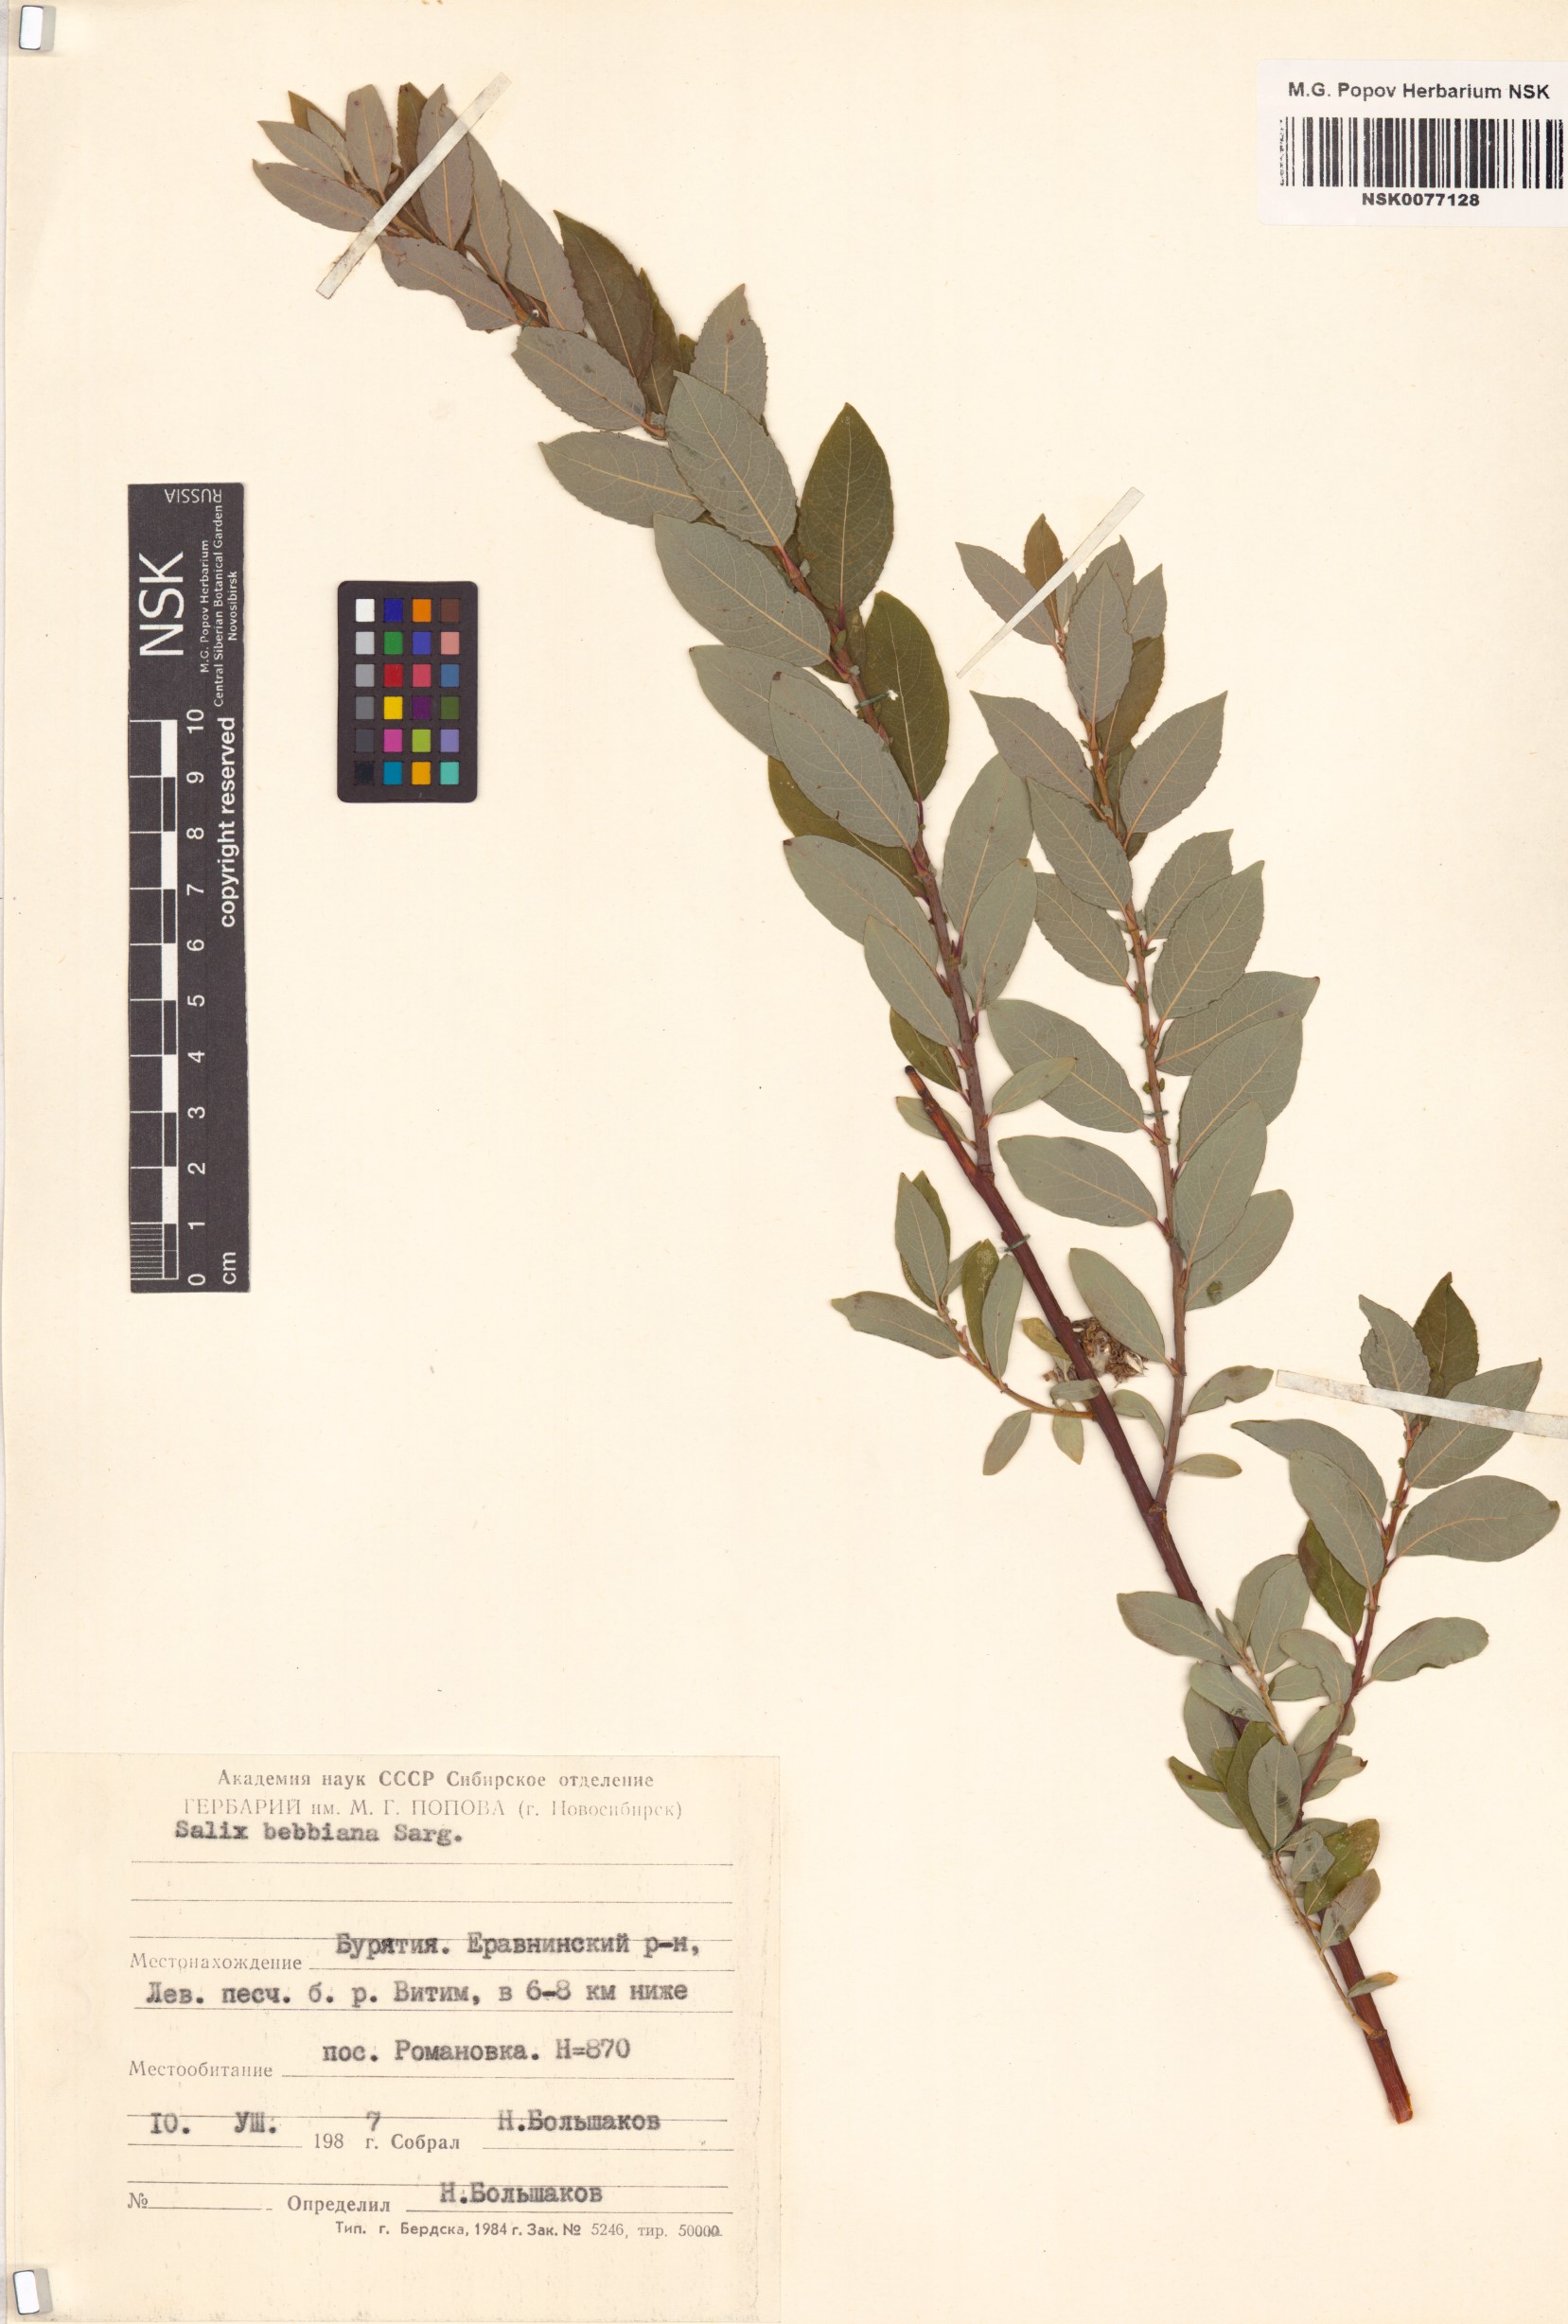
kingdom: Plantae
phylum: Tracheophyta
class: Magnoliopsida
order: Malpighiales
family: Salicaceae
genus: Salix
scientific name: Salix bebbiana
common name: Bebb's willow
